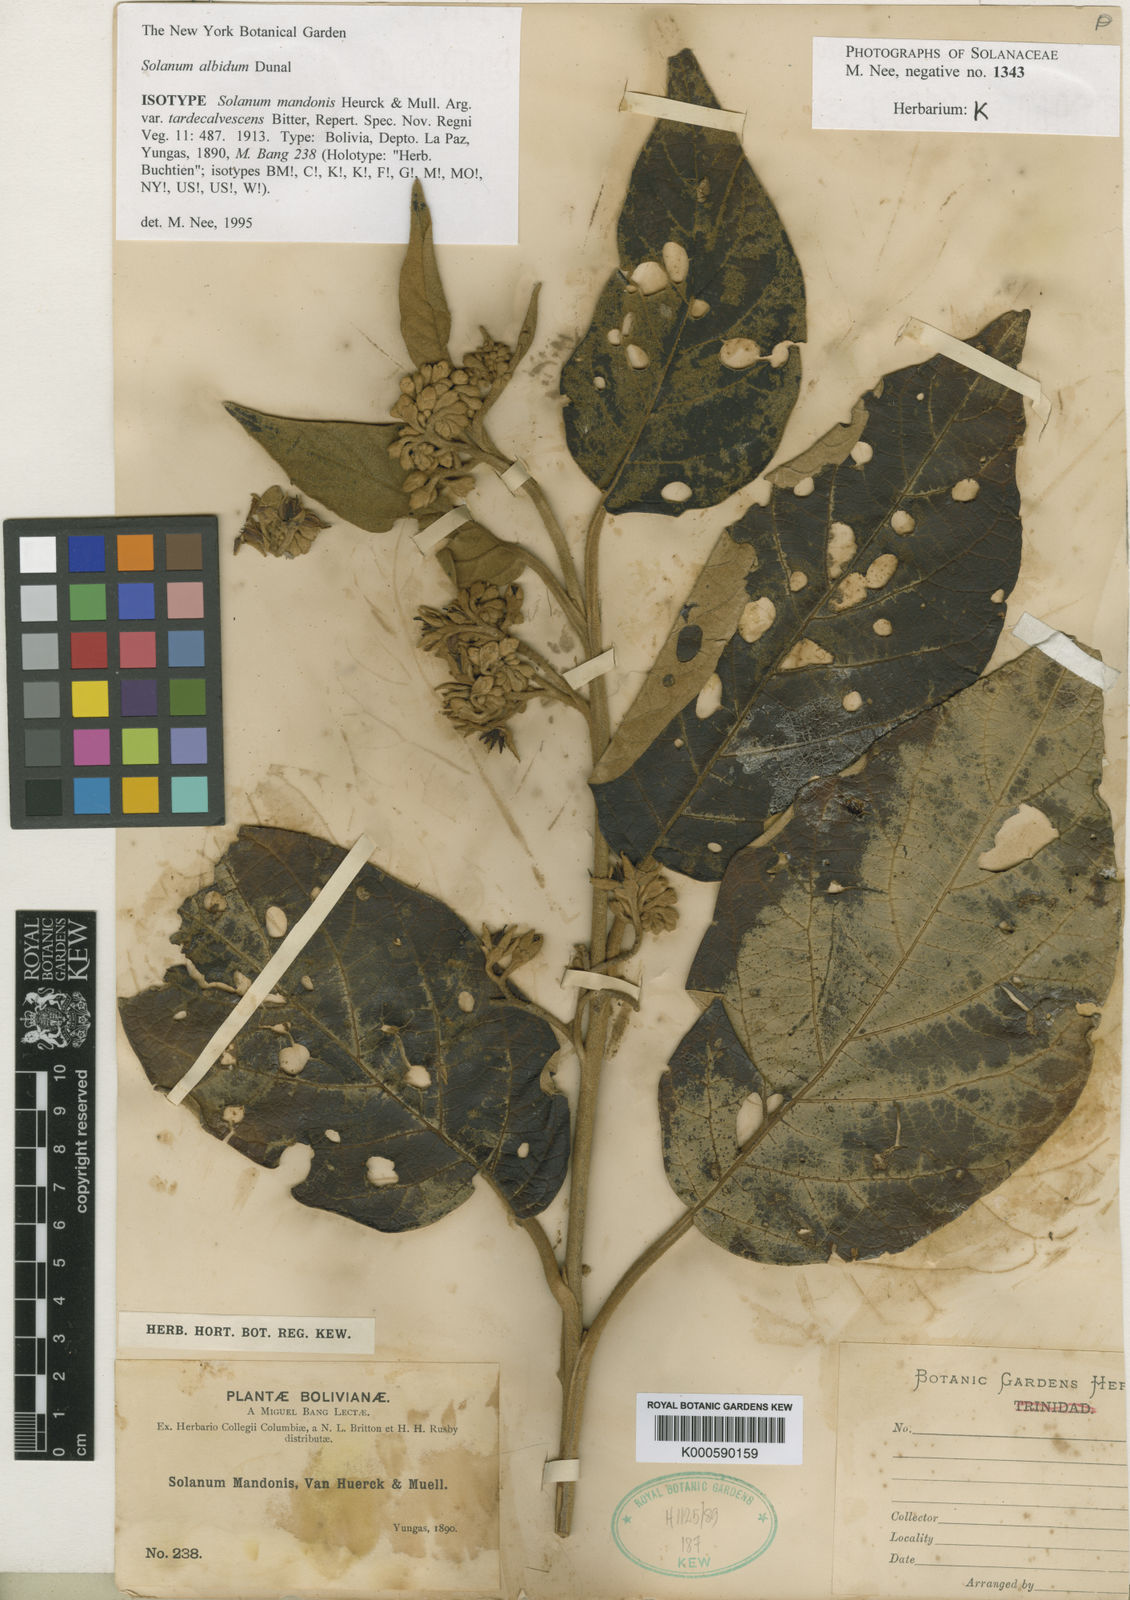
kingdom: Plantae
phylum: Tracheophyta
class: Magnoliopsida
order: Solanales
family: Solanaceae
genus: Solanum
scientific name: Solanum albidum
